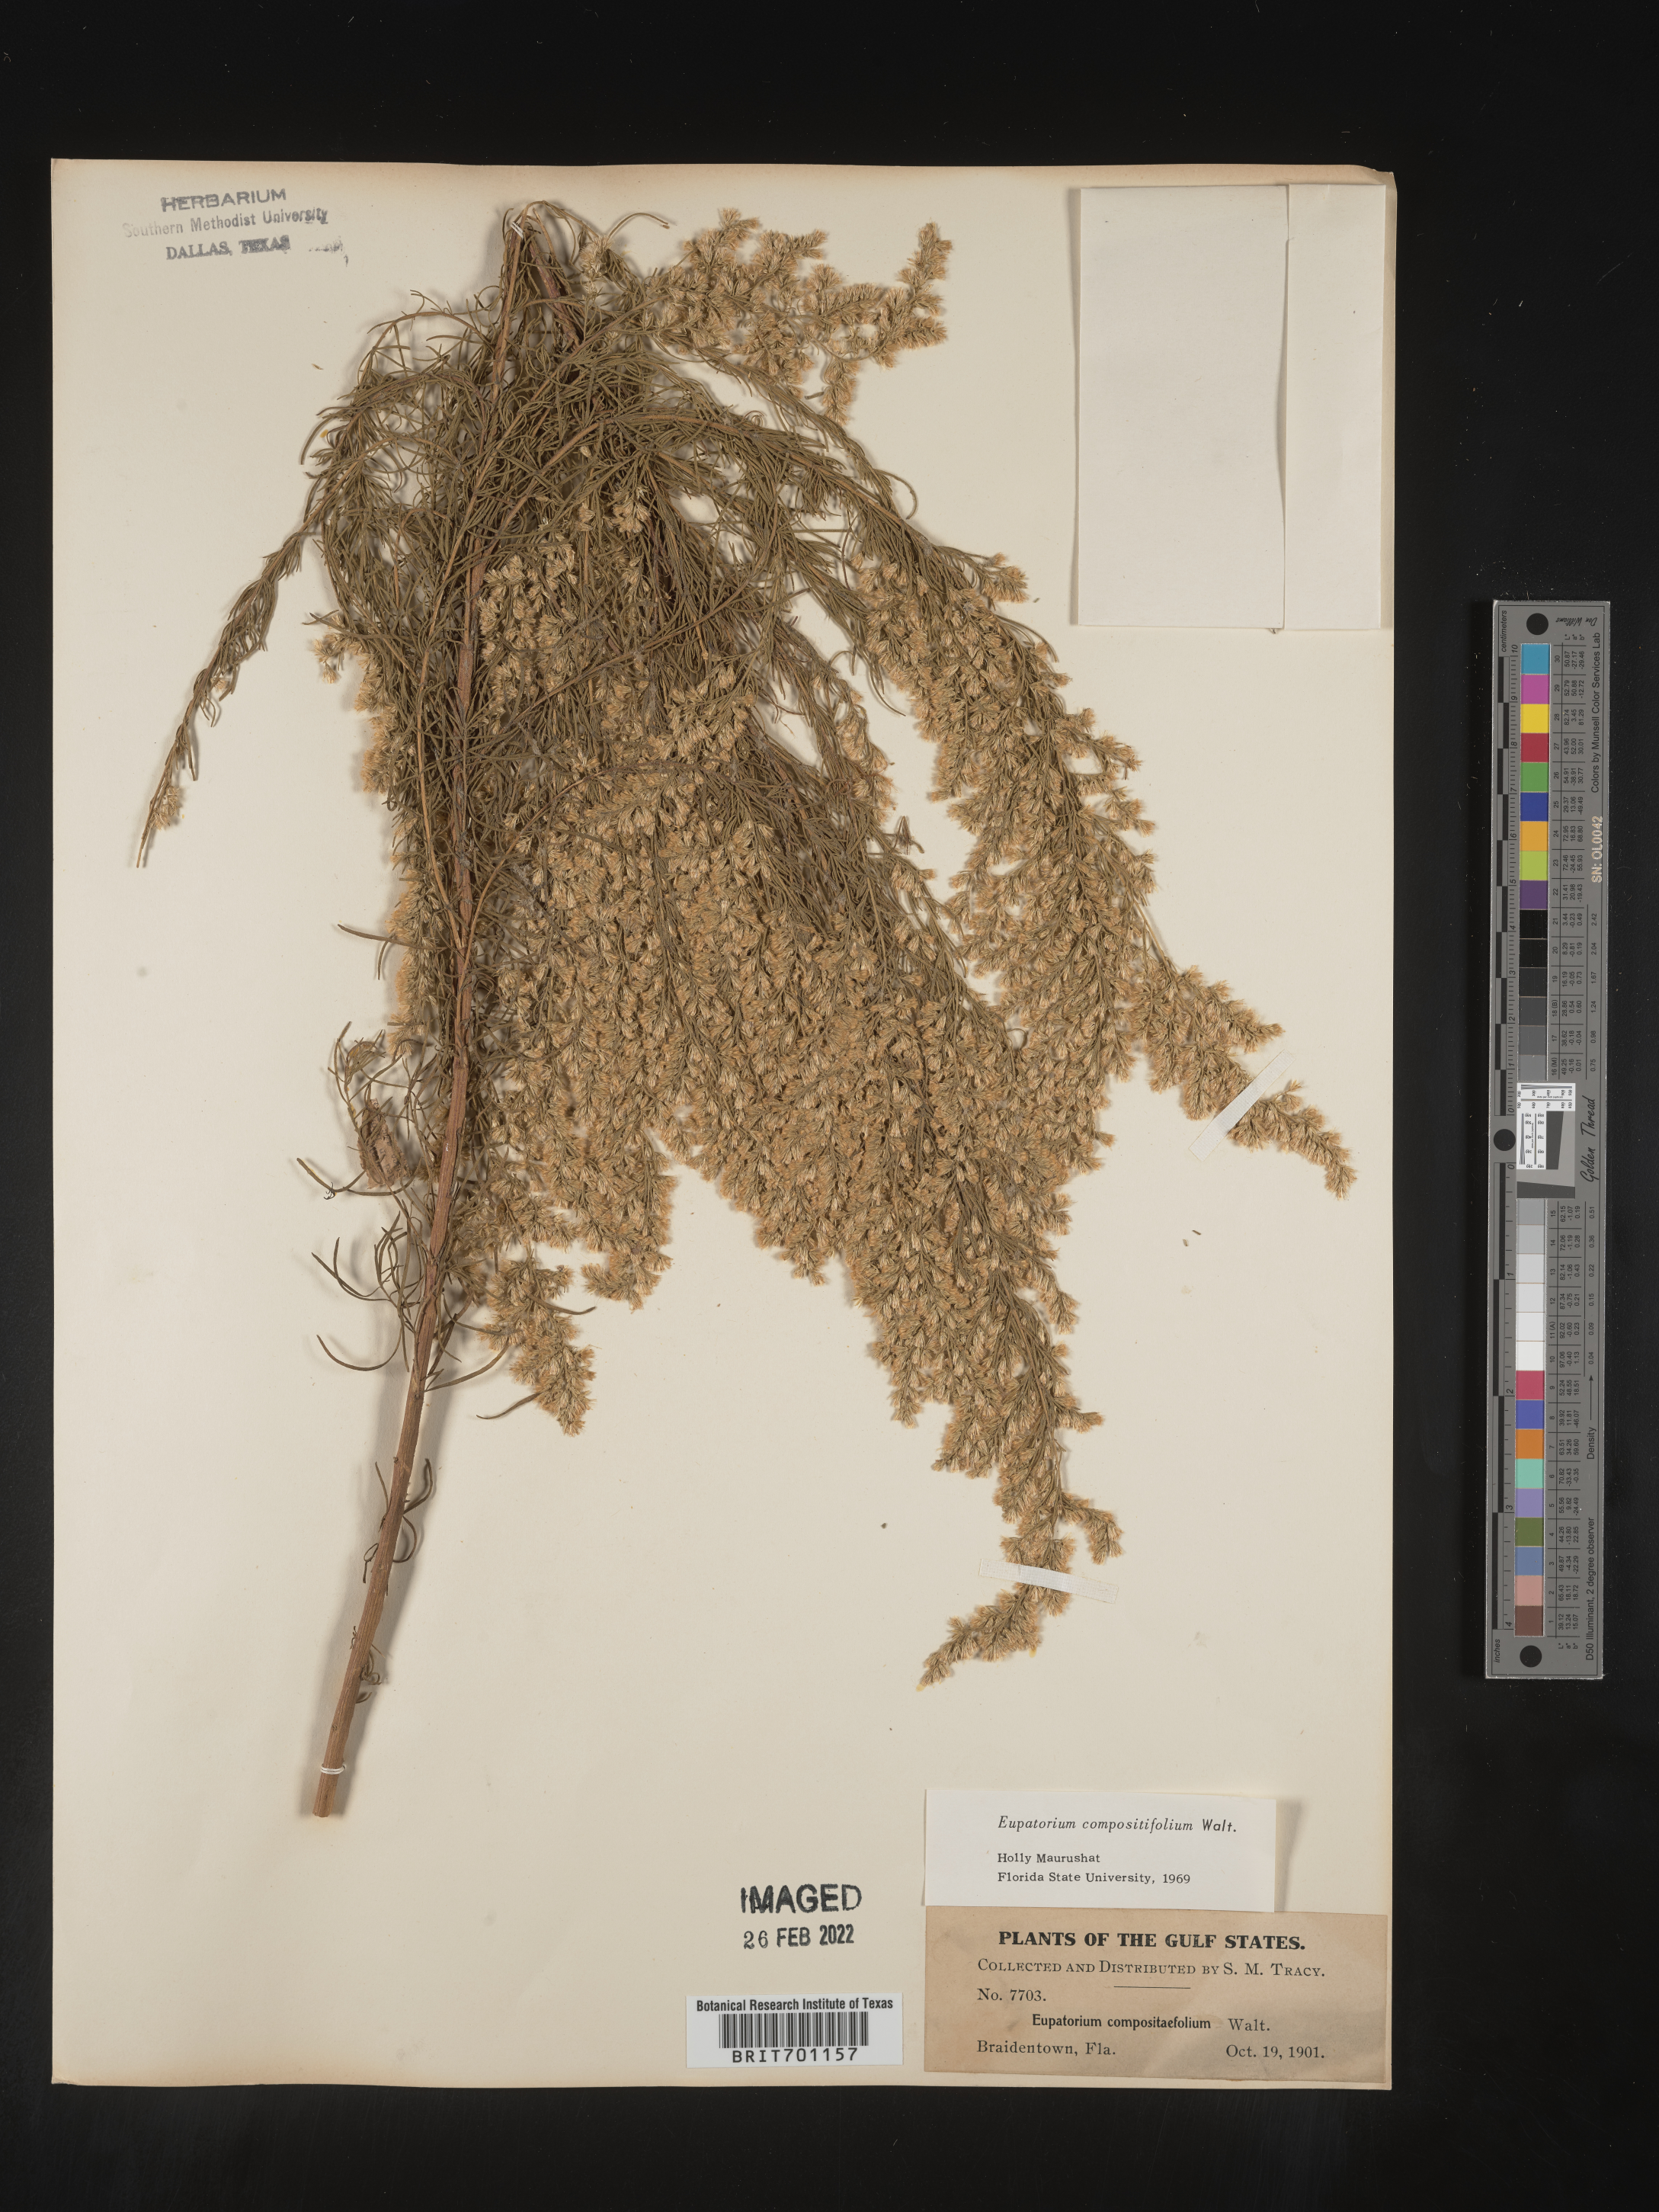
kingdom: Plantae
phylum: Tracheophyta
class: Magnoliopsida
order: Asterales
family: Asteraceae
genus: Eupatorium
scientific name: Eupatorium compositifolium
